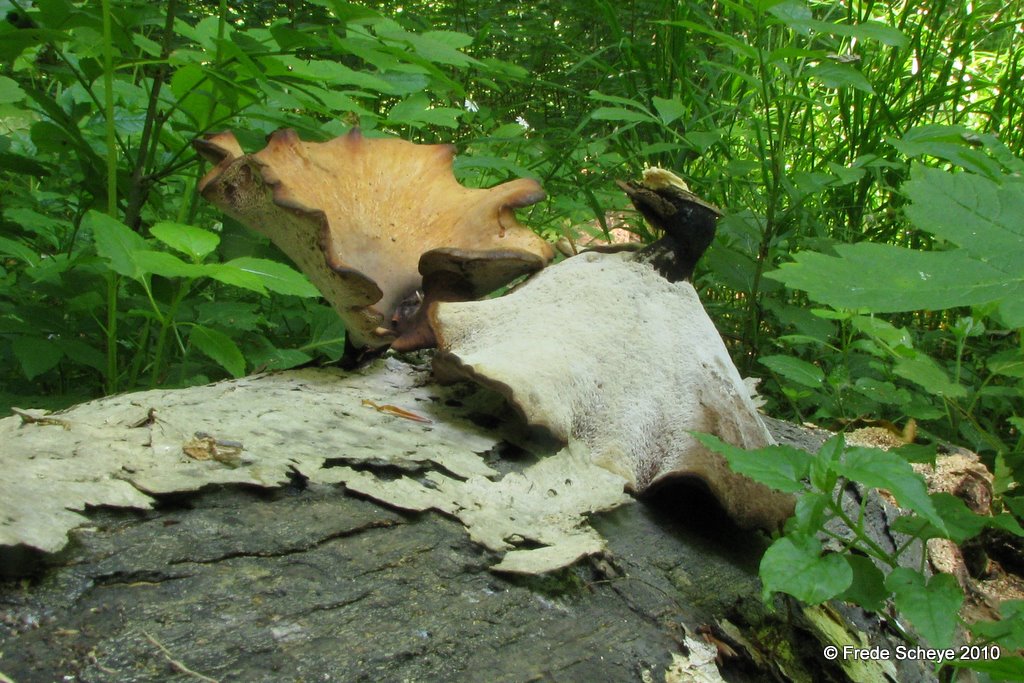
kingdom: Fungi
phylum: Basidiomycota
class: Agaricomycetes
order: Polyporales
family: Polyporaceae
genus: Cerioporus
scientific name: Cerioporus varius
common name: foranderlig stilkporesvamp
